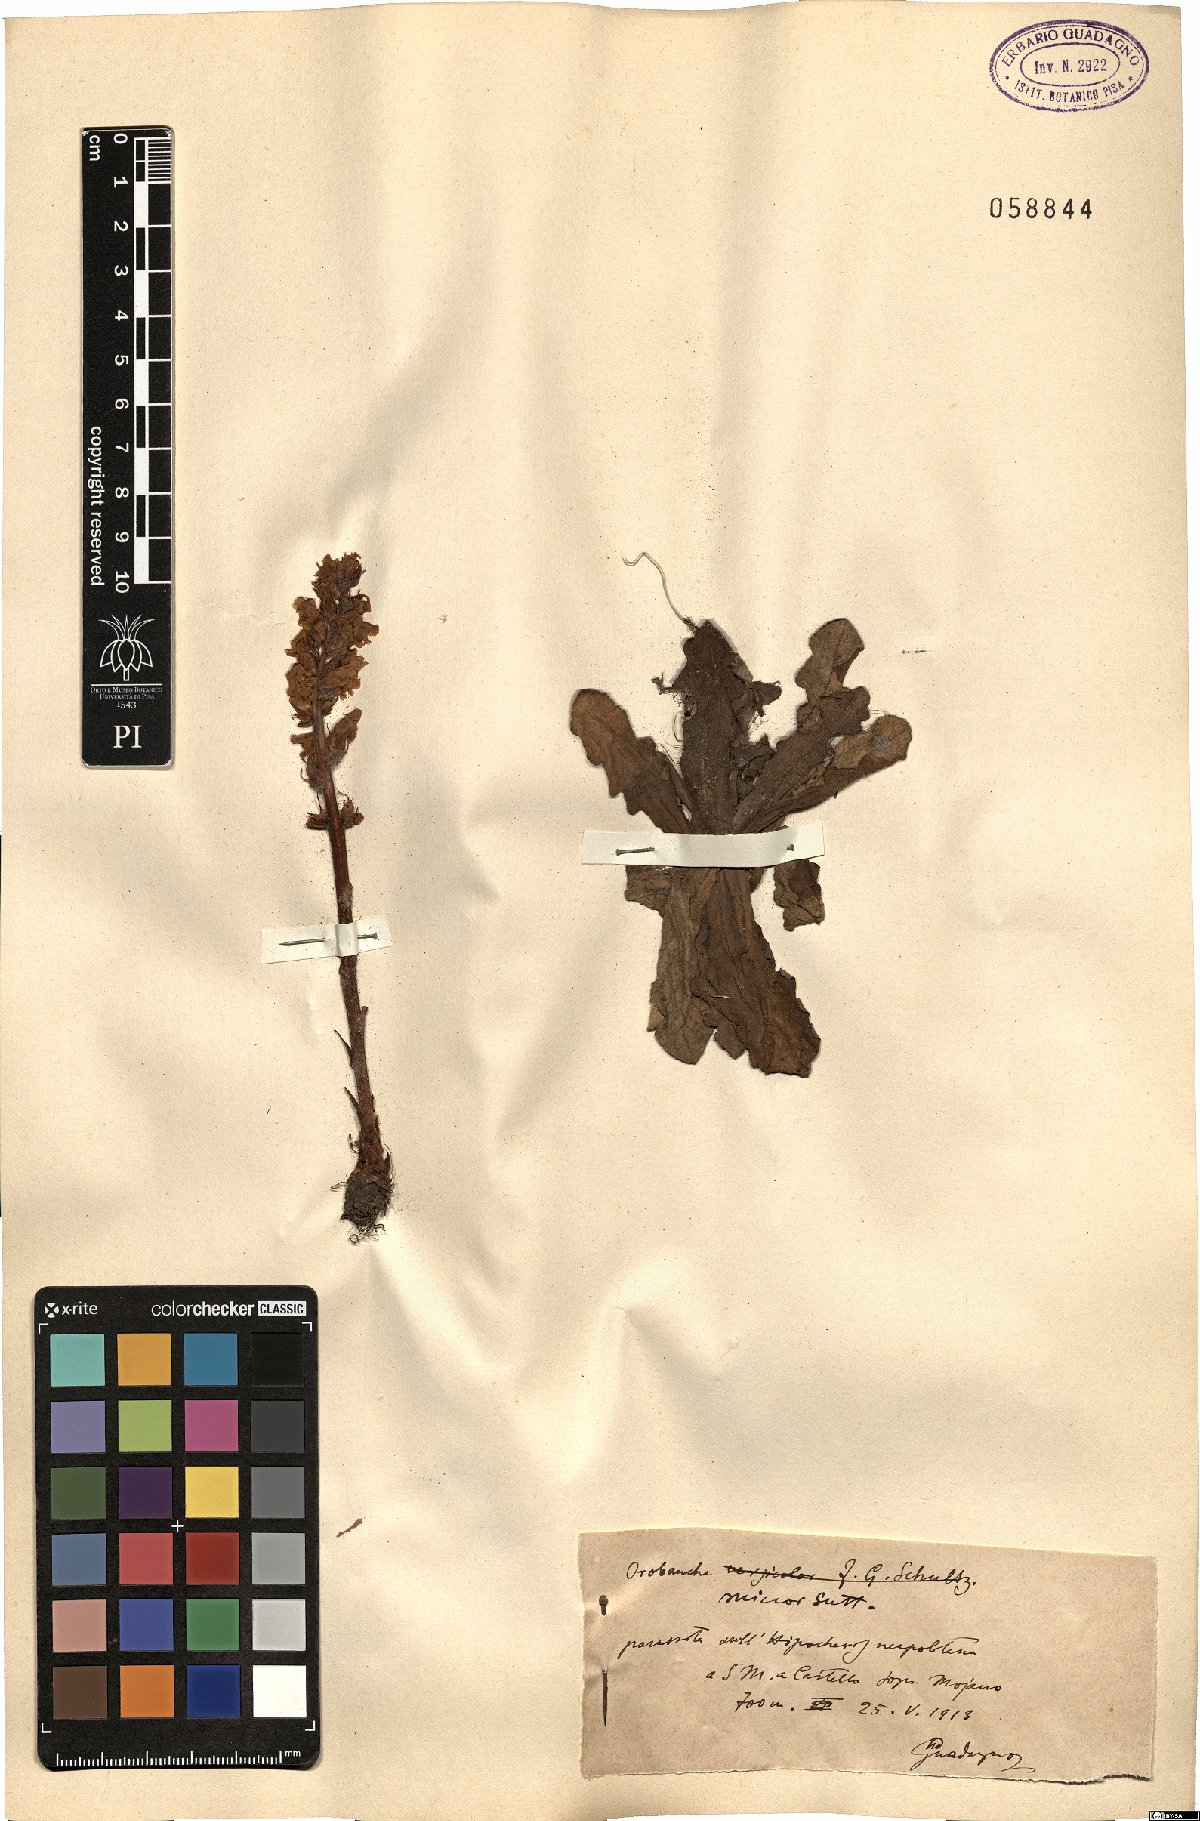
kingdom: Plantae
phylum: Tracheophyta
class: Magnoliopsida
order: Lamiales
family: Orobanchaceae
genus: Orobanche
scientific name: Orobanche minor
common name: Common broomrape
